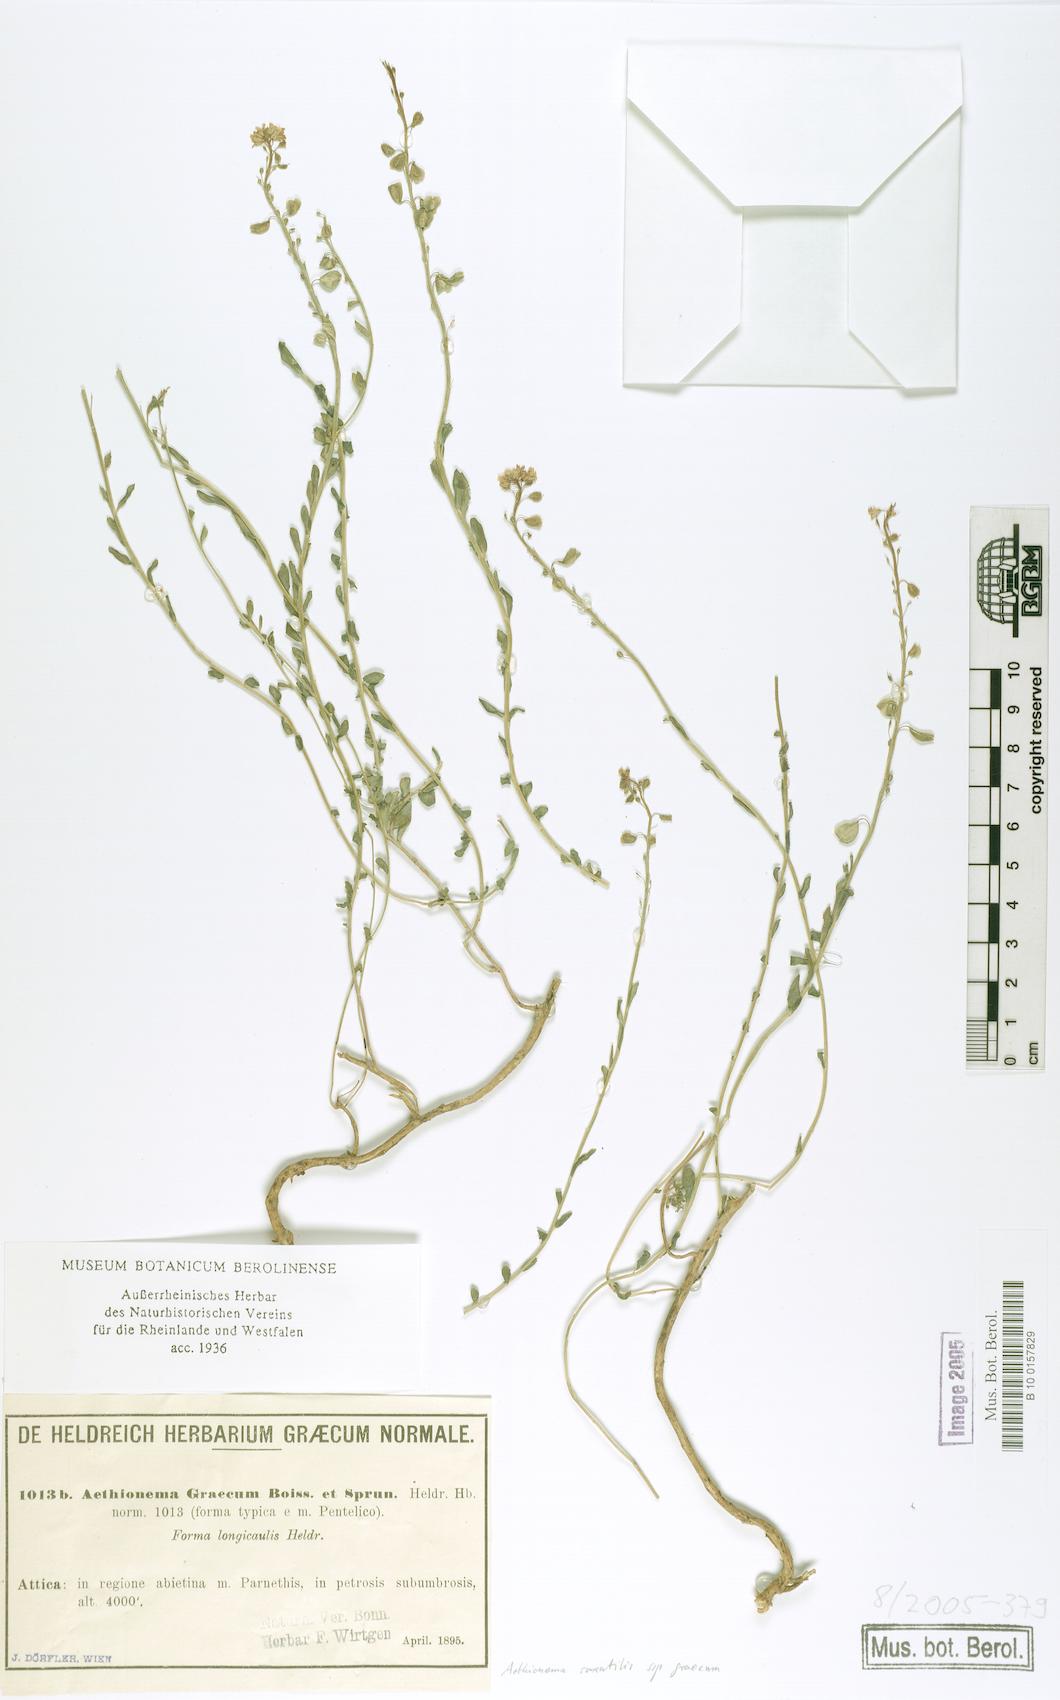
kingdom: Plantae
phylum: Tracheophyta
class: Magnoliopsida
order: Brassicales
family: Brassicaceae
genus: Aethionema
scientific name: Aethionema saxatile
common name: Burnt candytuft
